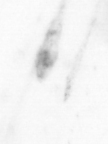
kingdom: Animalia
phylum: Chaetognatha
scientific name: Chaetognatha
